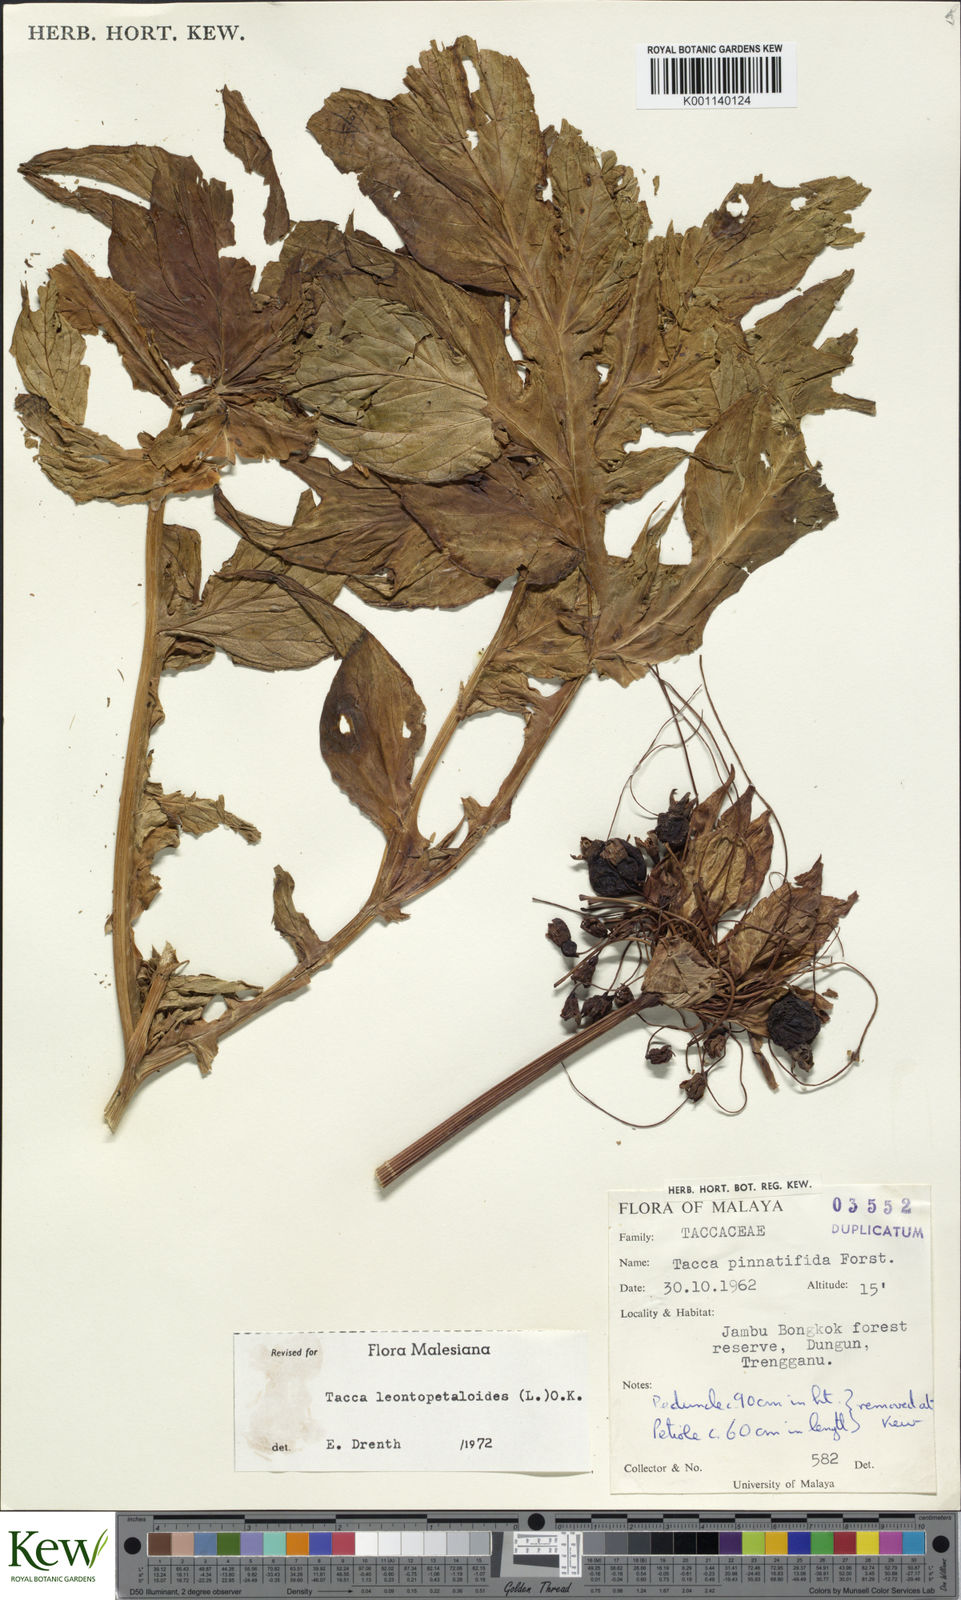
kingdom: Plantae
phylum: Tracheophyta
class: Liliopsida
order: Dioscoreales
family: Dioscoreaceae
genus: Tacca
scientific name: Tacca leontopetaloides
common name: Arrowroot
